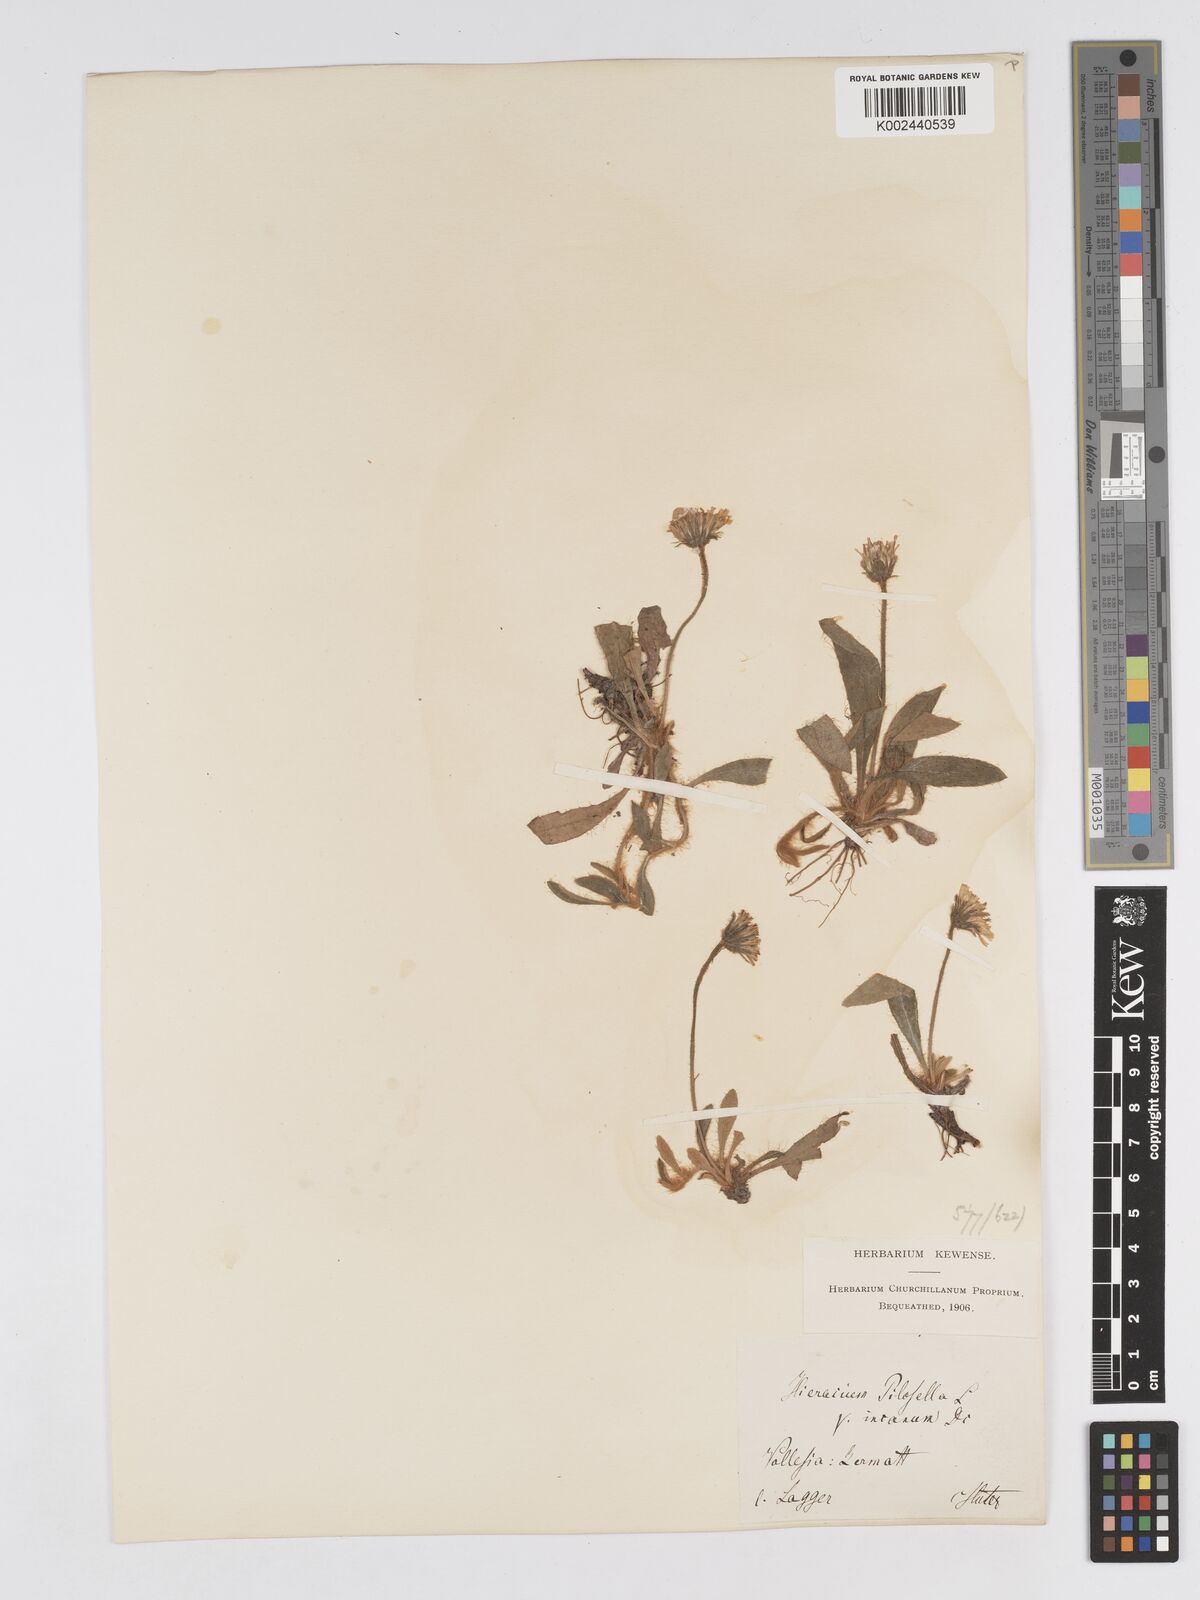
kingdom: Plantae
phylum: Tracheophyta
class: Magnoliopsida
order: Asterales
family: Asteraceae
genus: Pilosella
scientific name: Pilosella velutina
